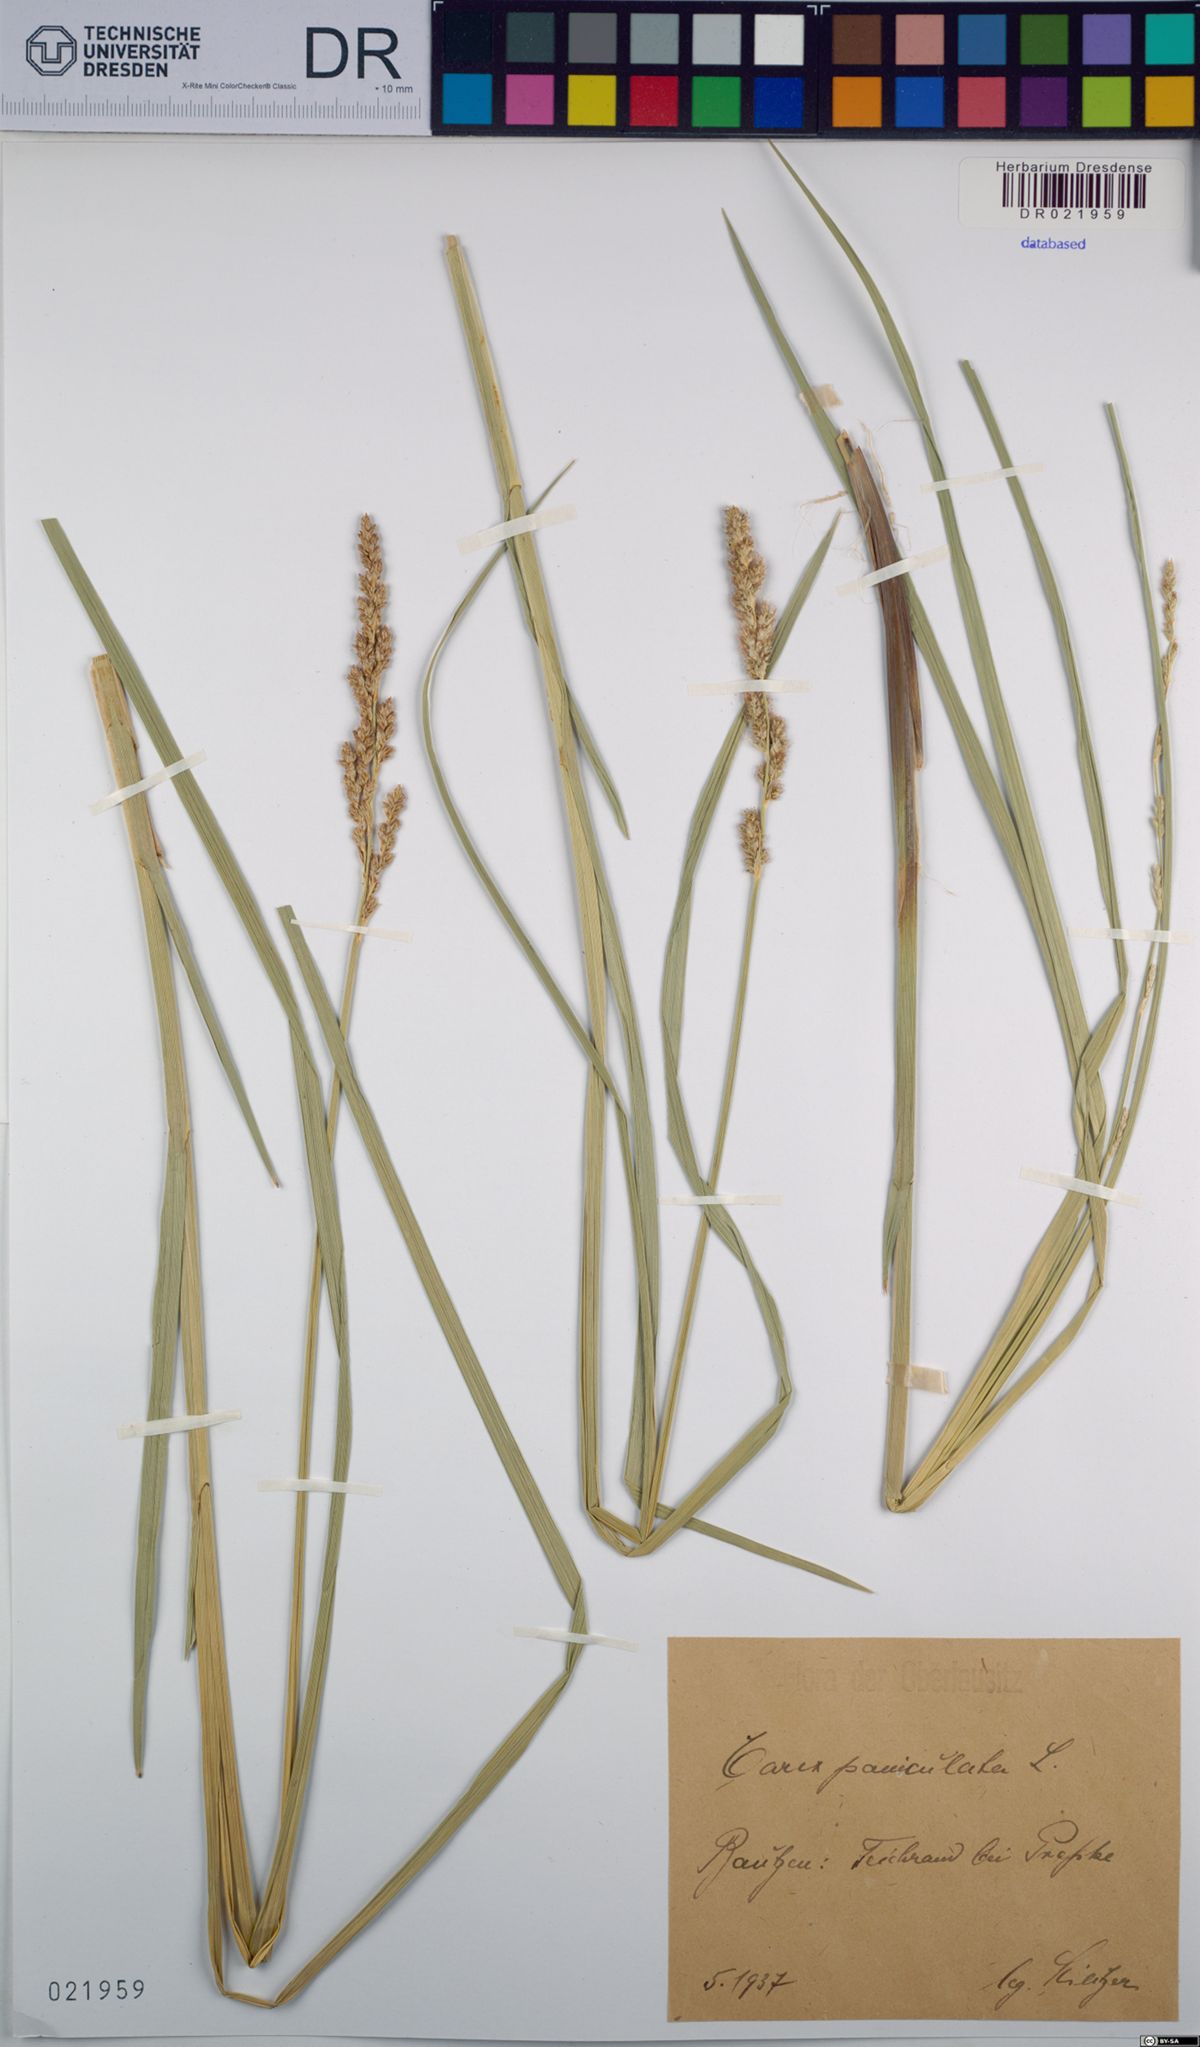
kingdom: Plantae
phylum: Tracheophyta
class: Liliopsida
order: Poales
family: Cyperaceae
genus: Carex
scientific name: Carex paniculata
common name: Greater tussock-sedge
